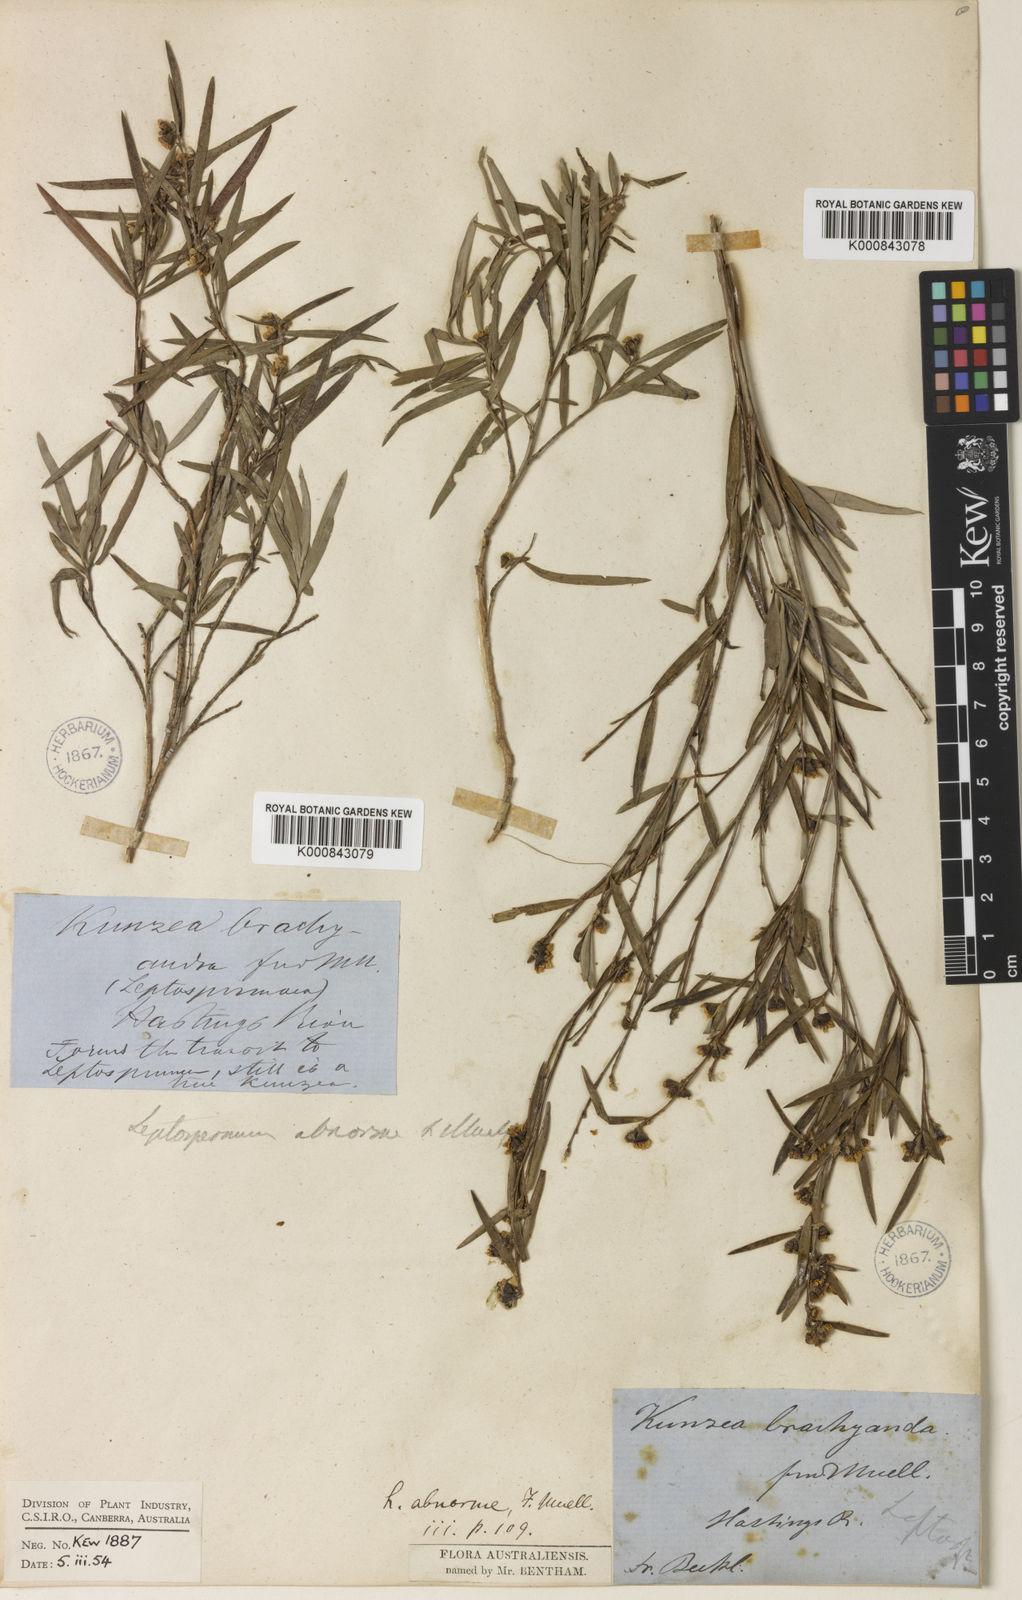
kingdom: Plantae
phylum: Tracheophyta
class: Magnoliopsida
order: Myrtales
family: Myrtaceae
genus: Leptospermum
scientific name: Leptospermum brachyandrum
